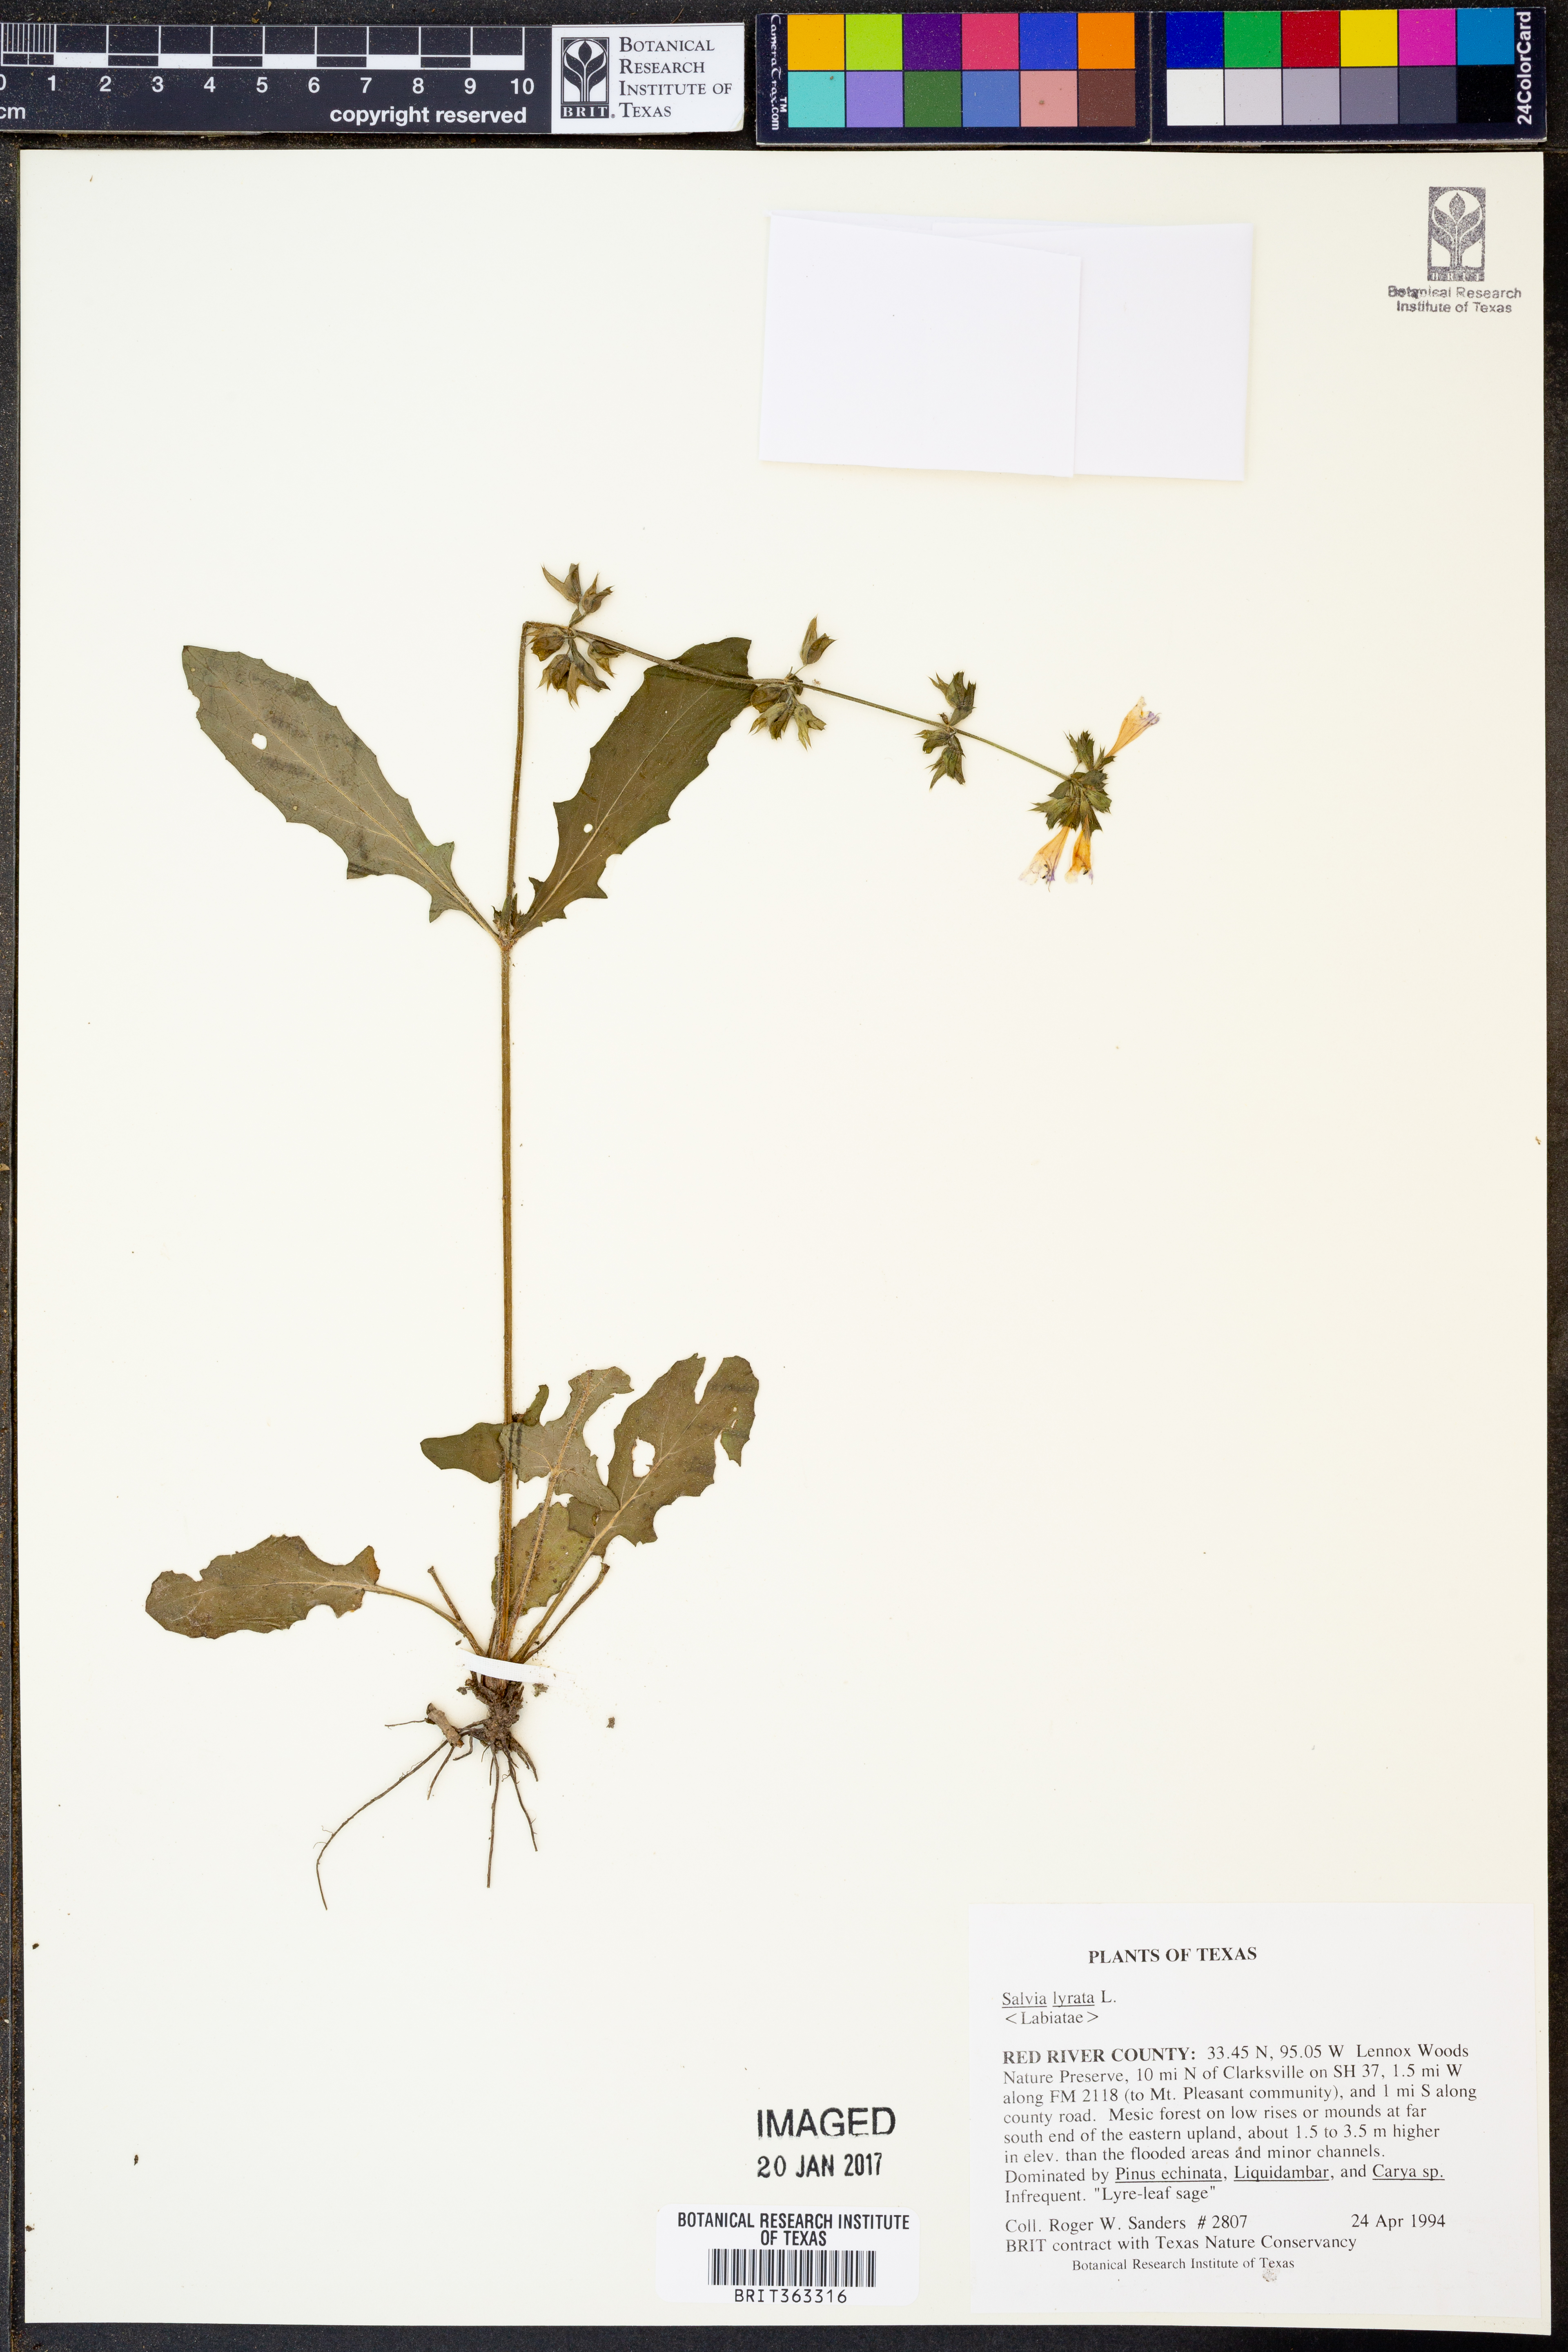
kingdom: Plantae
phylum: Tracheophyta
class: Magnoliopsida
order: Lamiales
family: Lamiaceae
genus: Salvia
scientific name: Salvia lyrata
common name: Cancerweed
